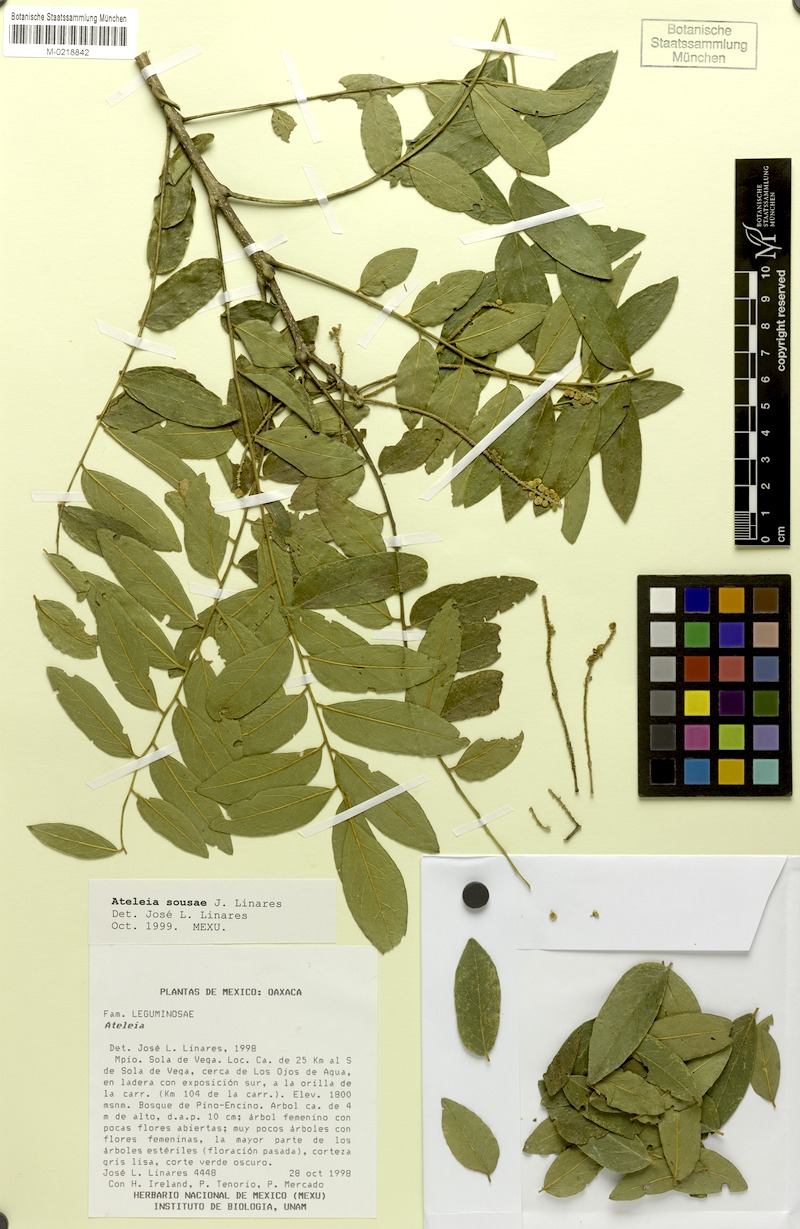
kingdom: Plantae
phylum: Tracheophyta
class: Magnoliopsida
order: Fabales
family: Fabaceae
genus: Ateleia
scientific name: Ateleia sousae
